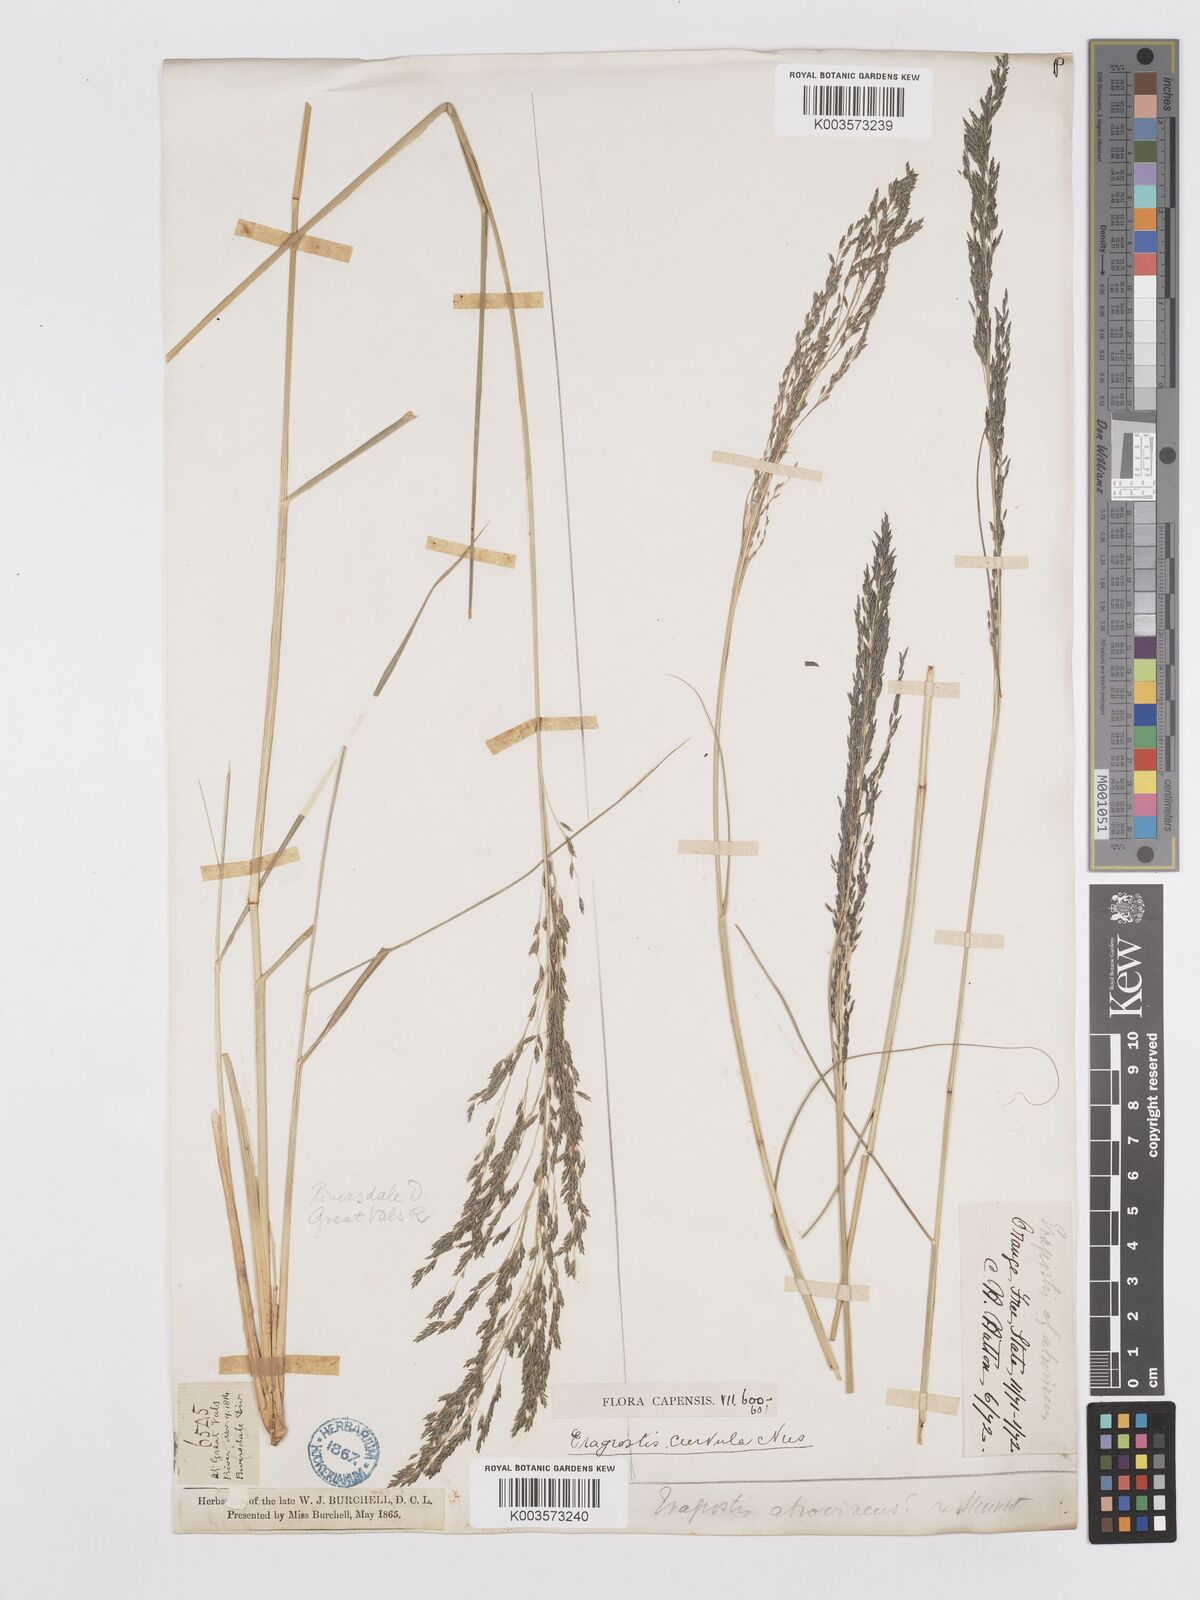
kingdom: Plantae
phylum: Tracheophyta
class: Liliopsida
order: Poales
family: Poaceae
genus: Eragrostis
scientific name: Eragrostis curvula
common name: African love-grass
